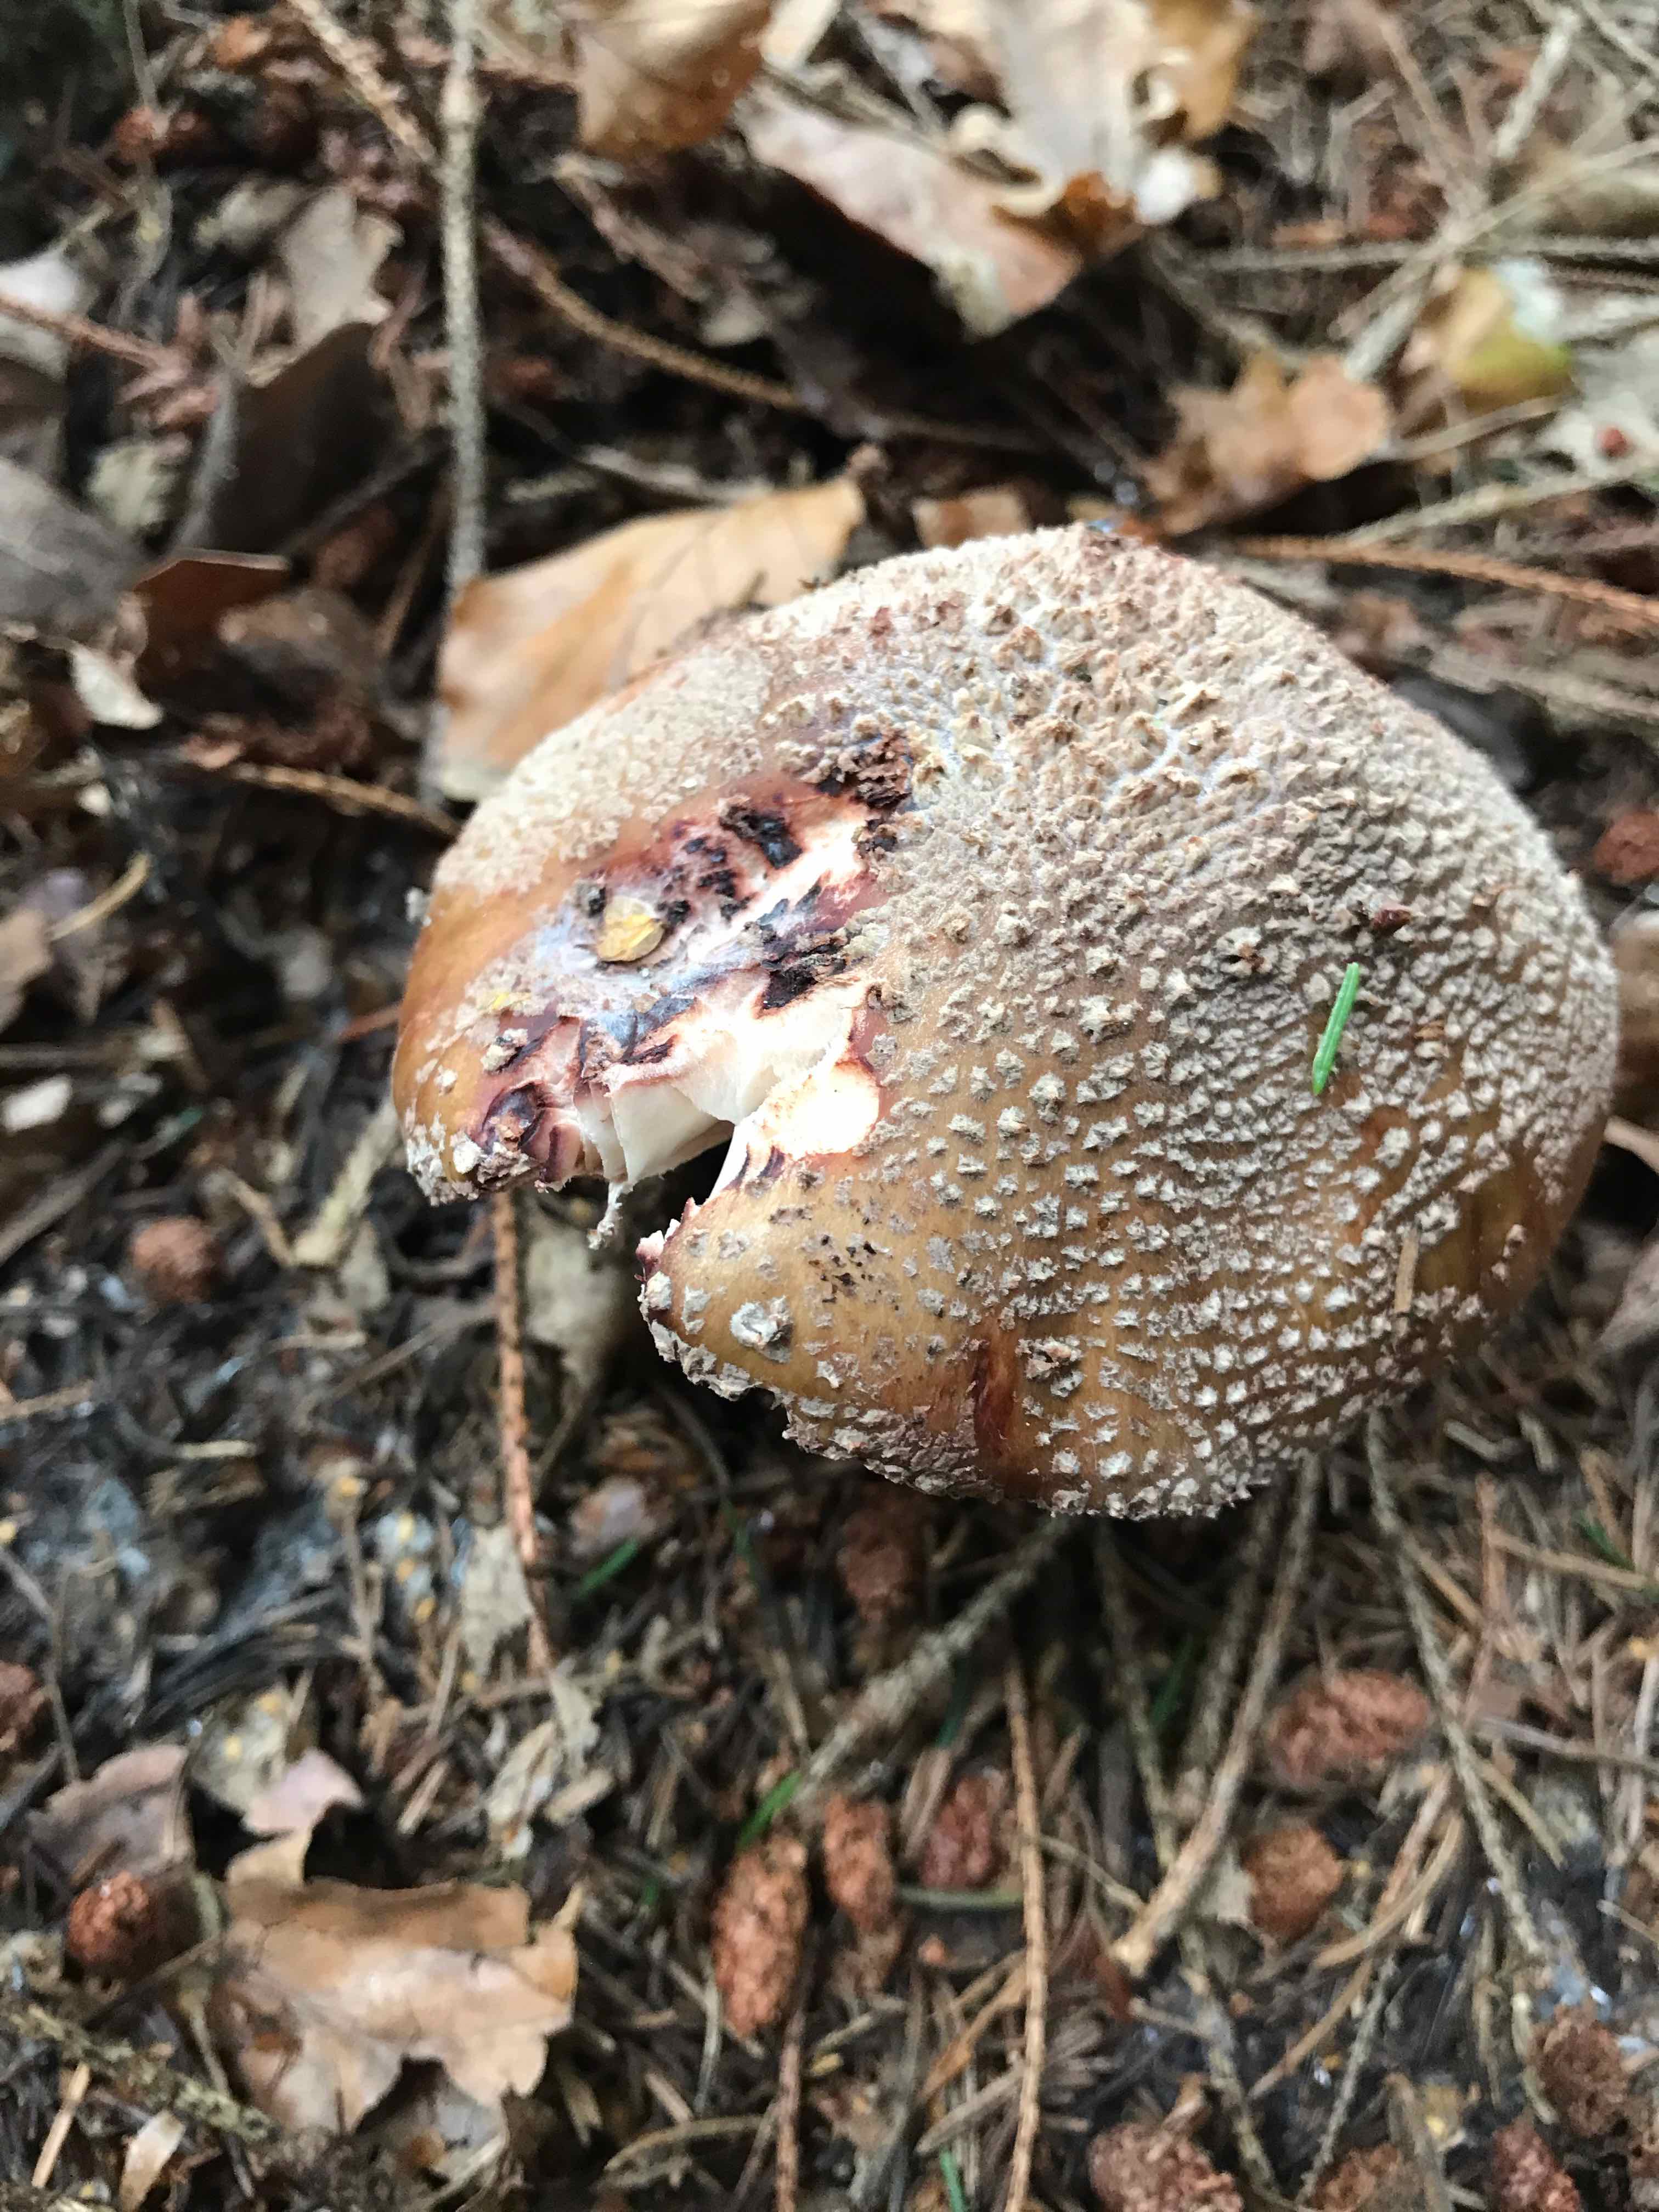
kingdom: Fungi
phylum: Basidiomycota
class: Agaricomycetes
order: Agaricales
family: Amanitaceae
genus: Amanita
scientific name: Amanita rubescens
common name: rødmende fluesvamp
